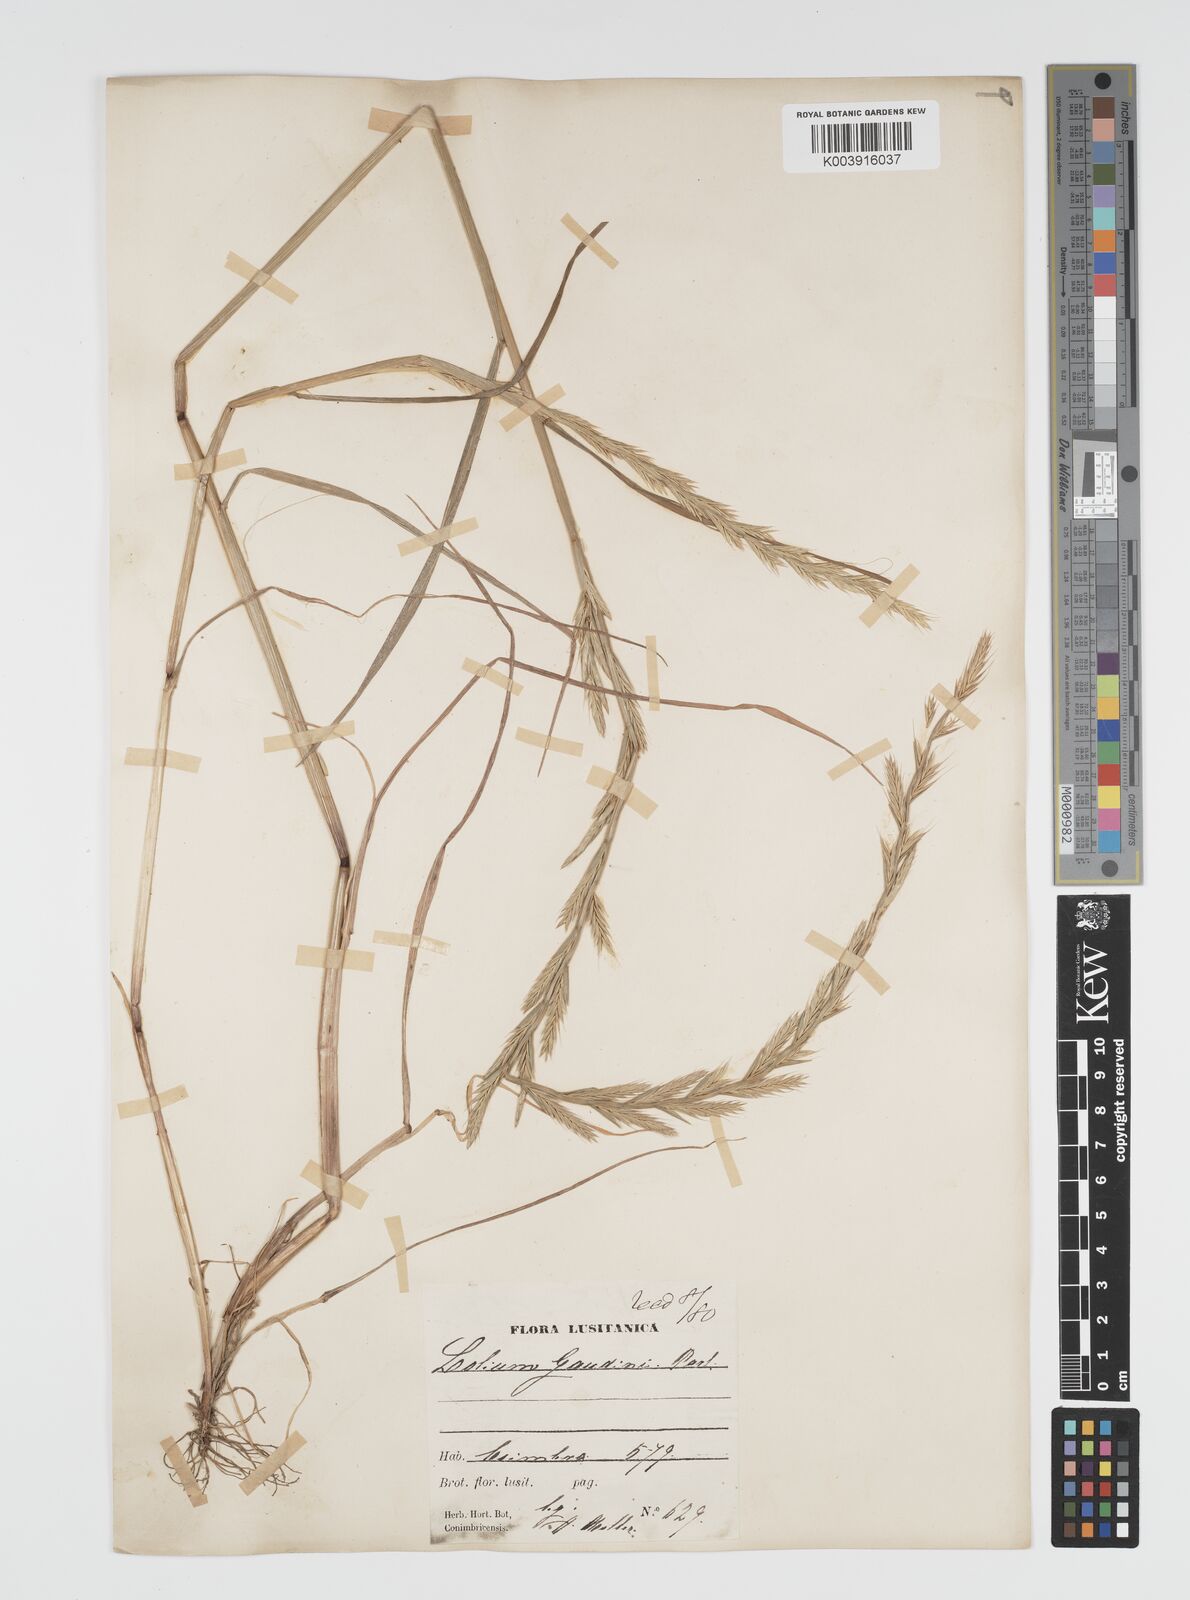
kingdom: Plantae
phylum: Tracheophyta
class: Liliopsida
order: Poales
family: Poaceae
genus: Lolium
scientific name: Lolium multiflorum
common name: Annual ryegrass
